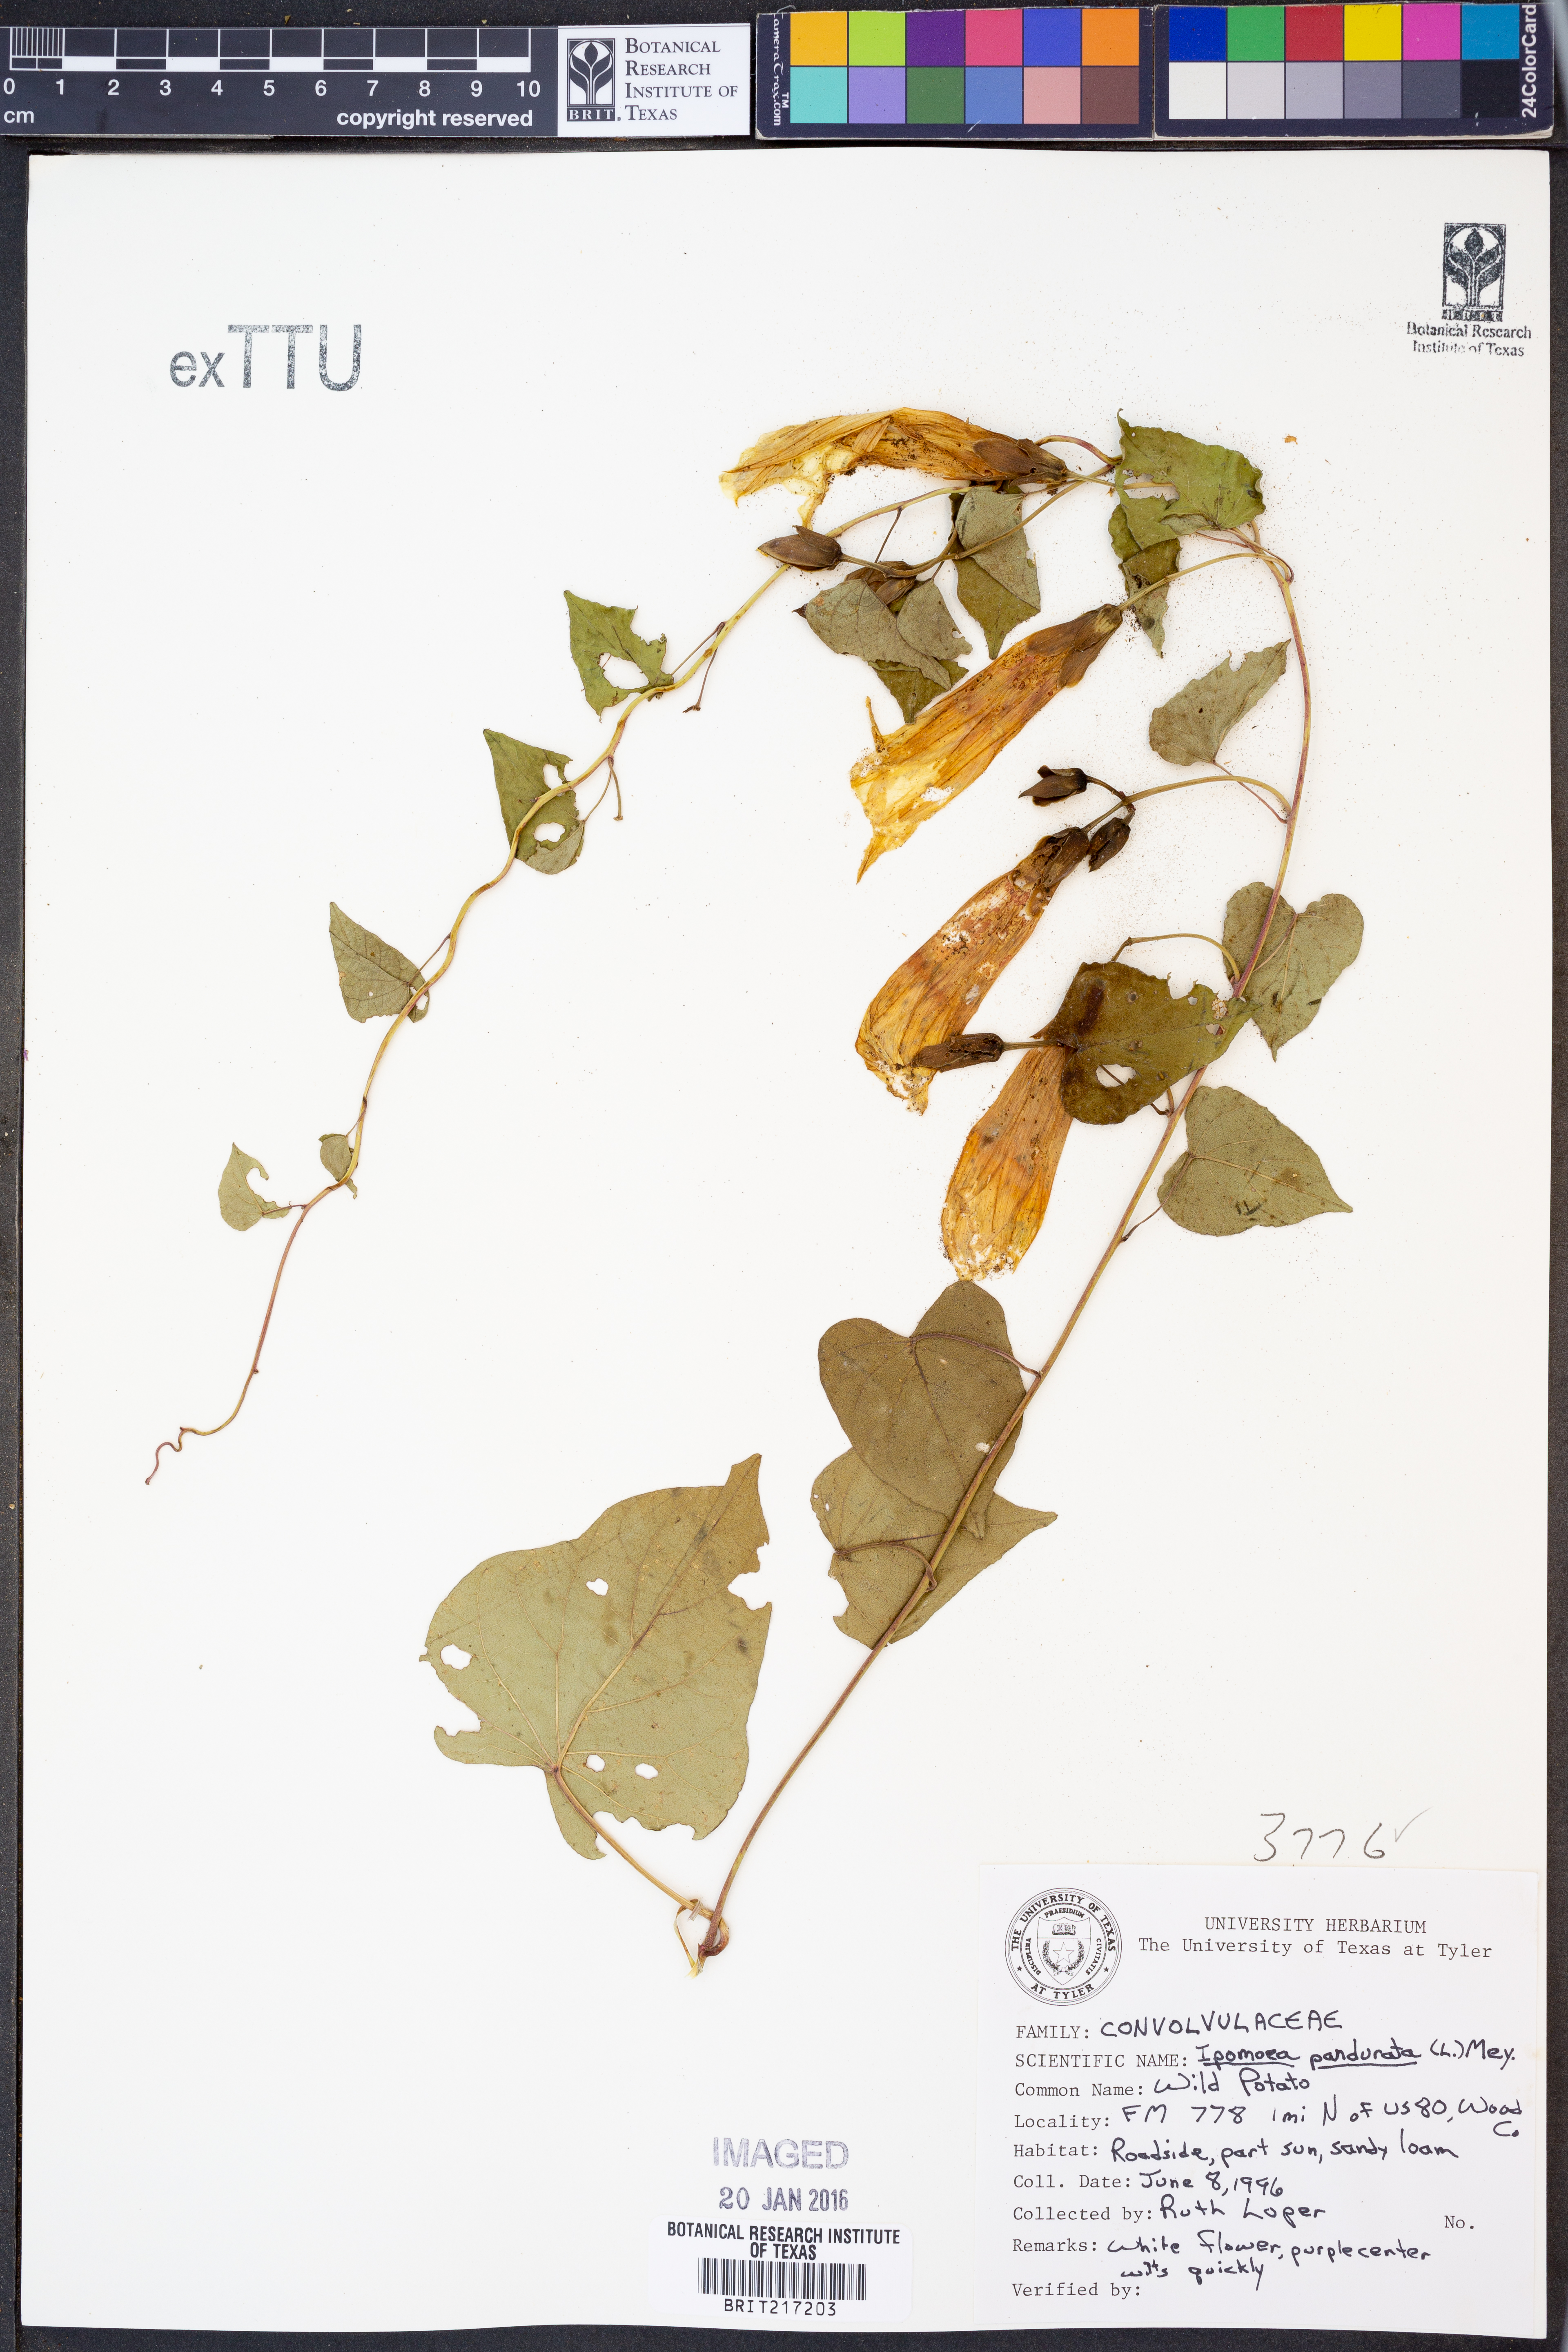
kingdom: Plantae
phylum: Tracheophyta
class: Magnoliopsida
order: Solanales
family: Convolvulaceae
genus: Ipomoea
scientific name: Ipomoea pandurata
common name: Man-of-the-earth
